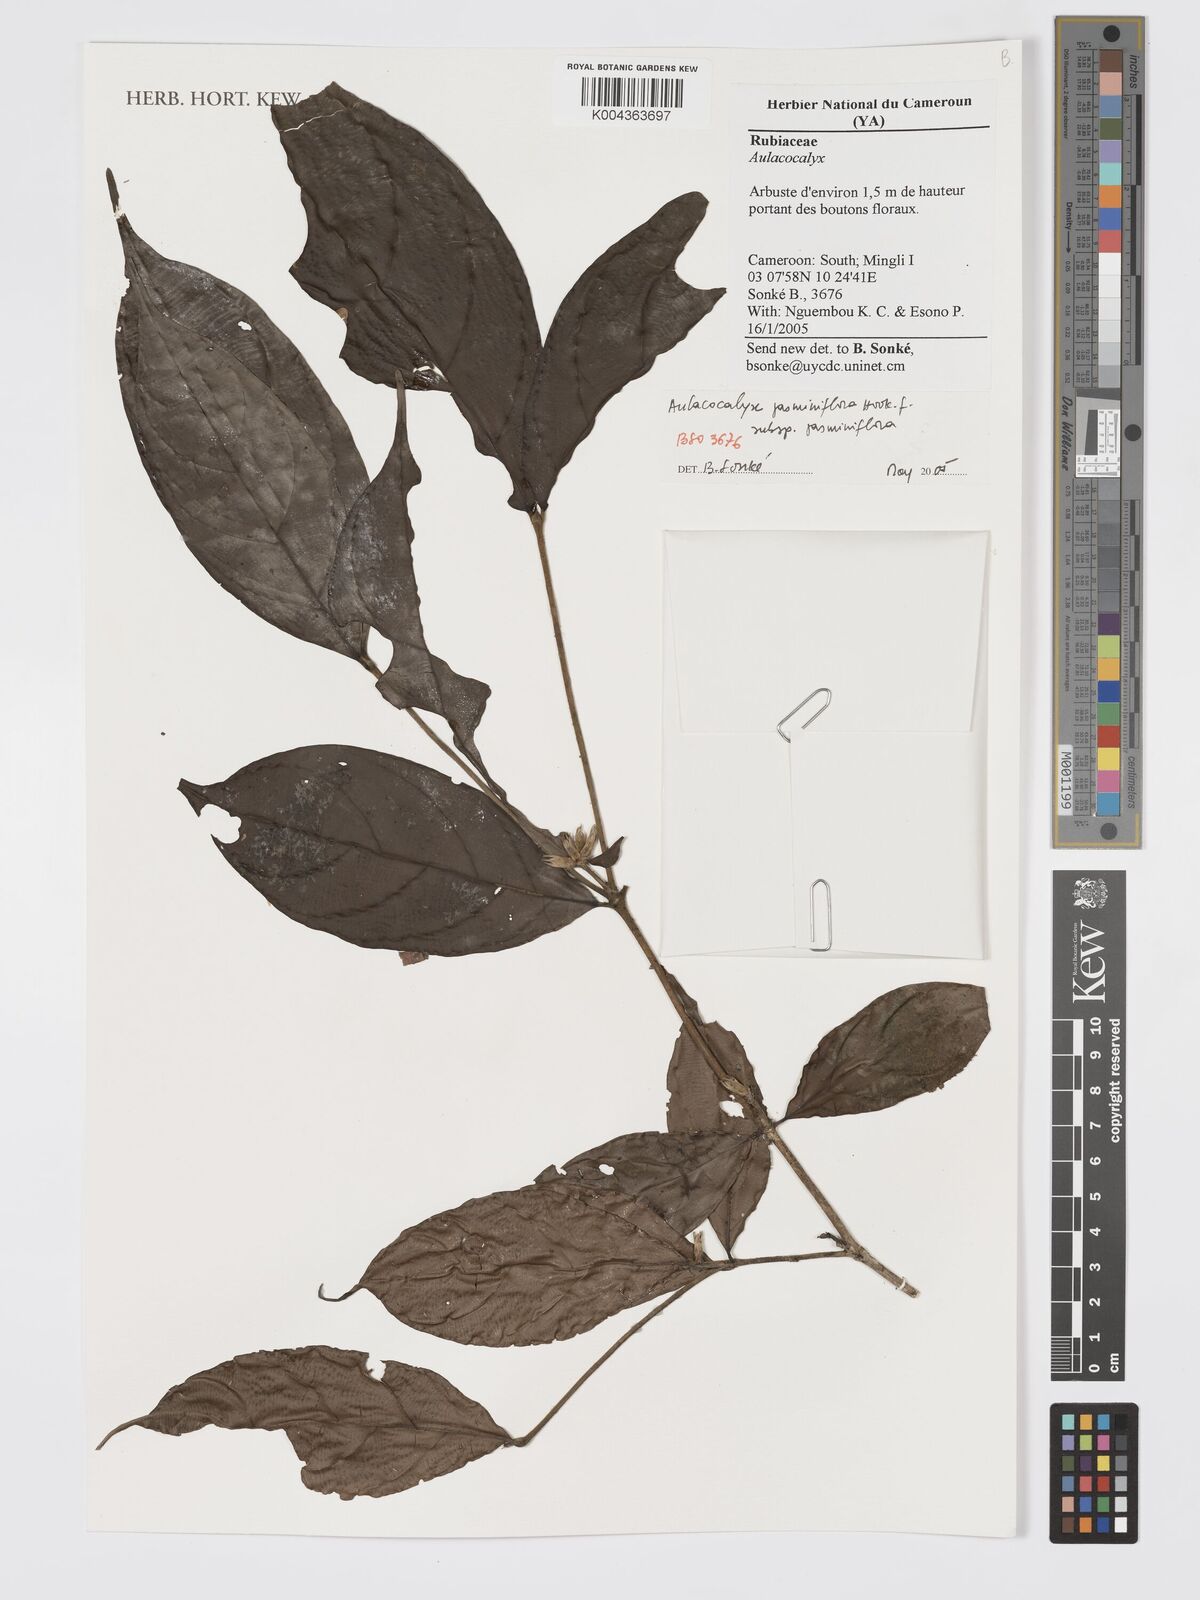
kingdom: Plantae
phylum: Tracheophyta
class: Magnoliopsida
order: Gentianales
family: Rubiaceae
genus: Aulacocalyx
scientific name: Aulacocalyx jasminiflora
